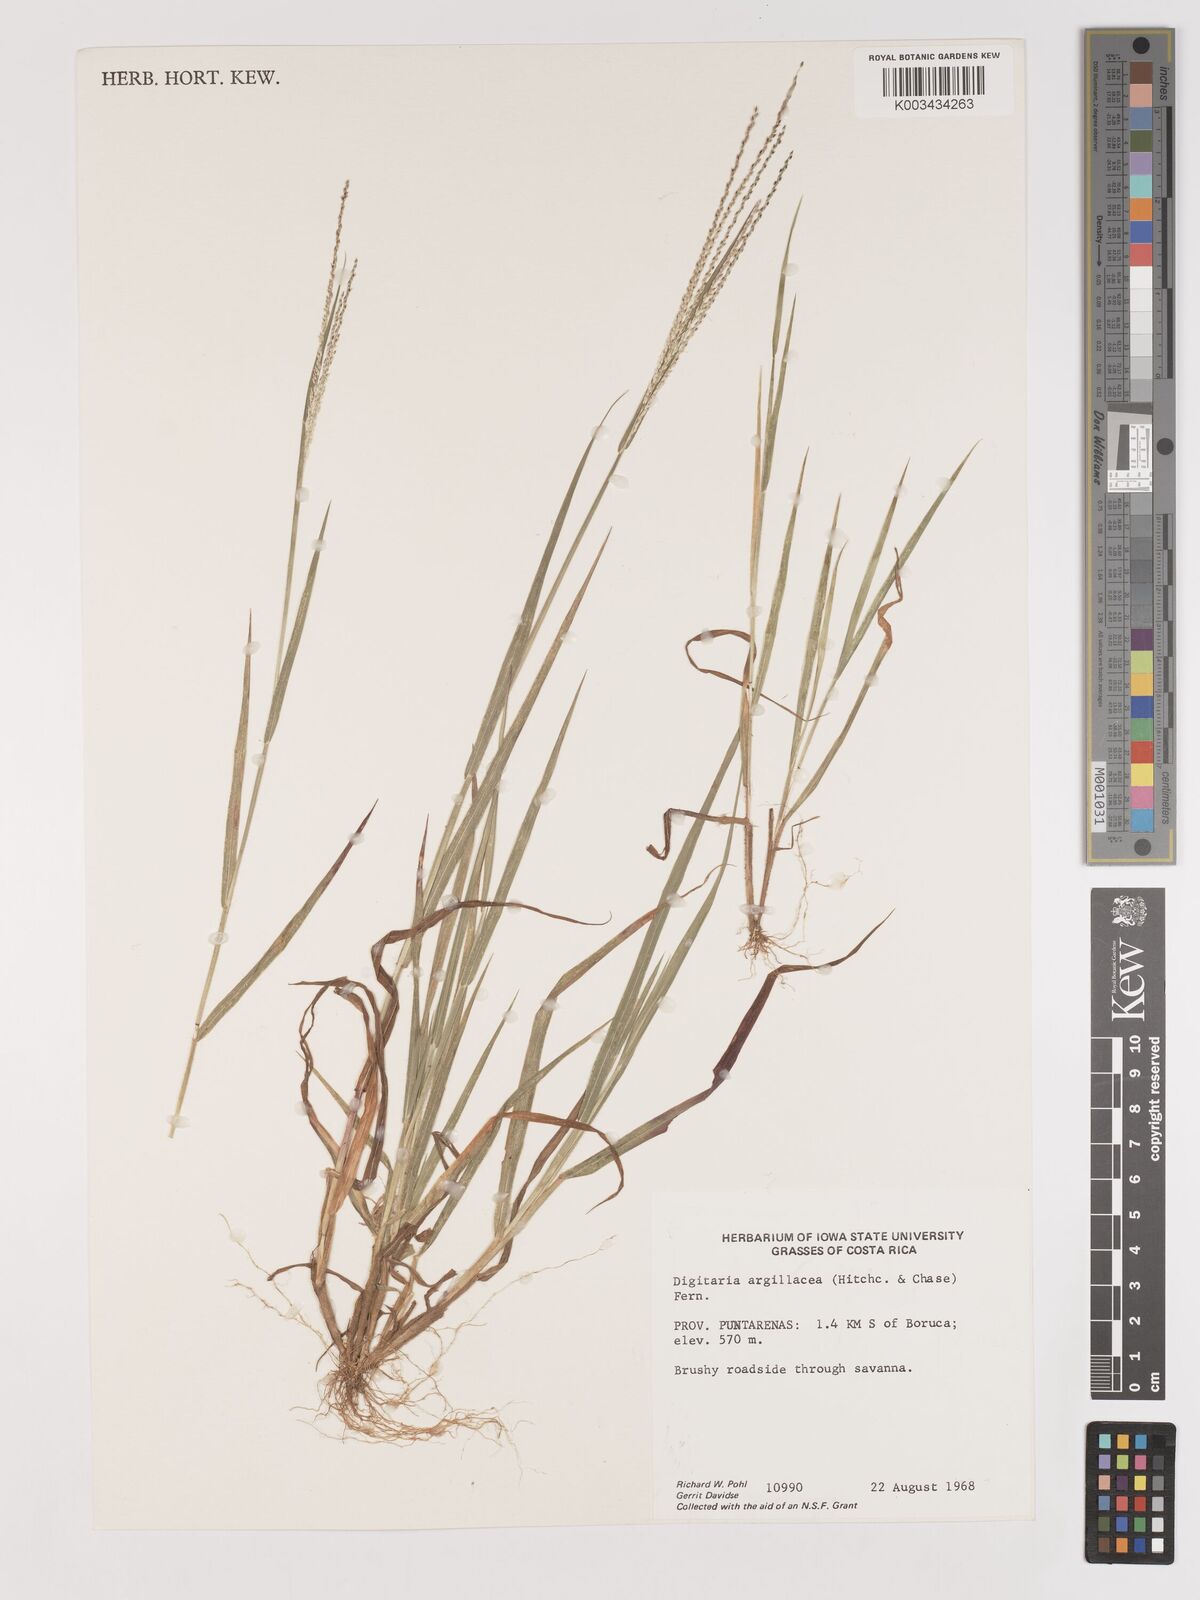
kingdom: Plantae
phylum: Tracheophyta
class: Liliopsida
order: Poales
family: Poaceae
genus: Digitaria
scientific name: Digitaria argillacea
